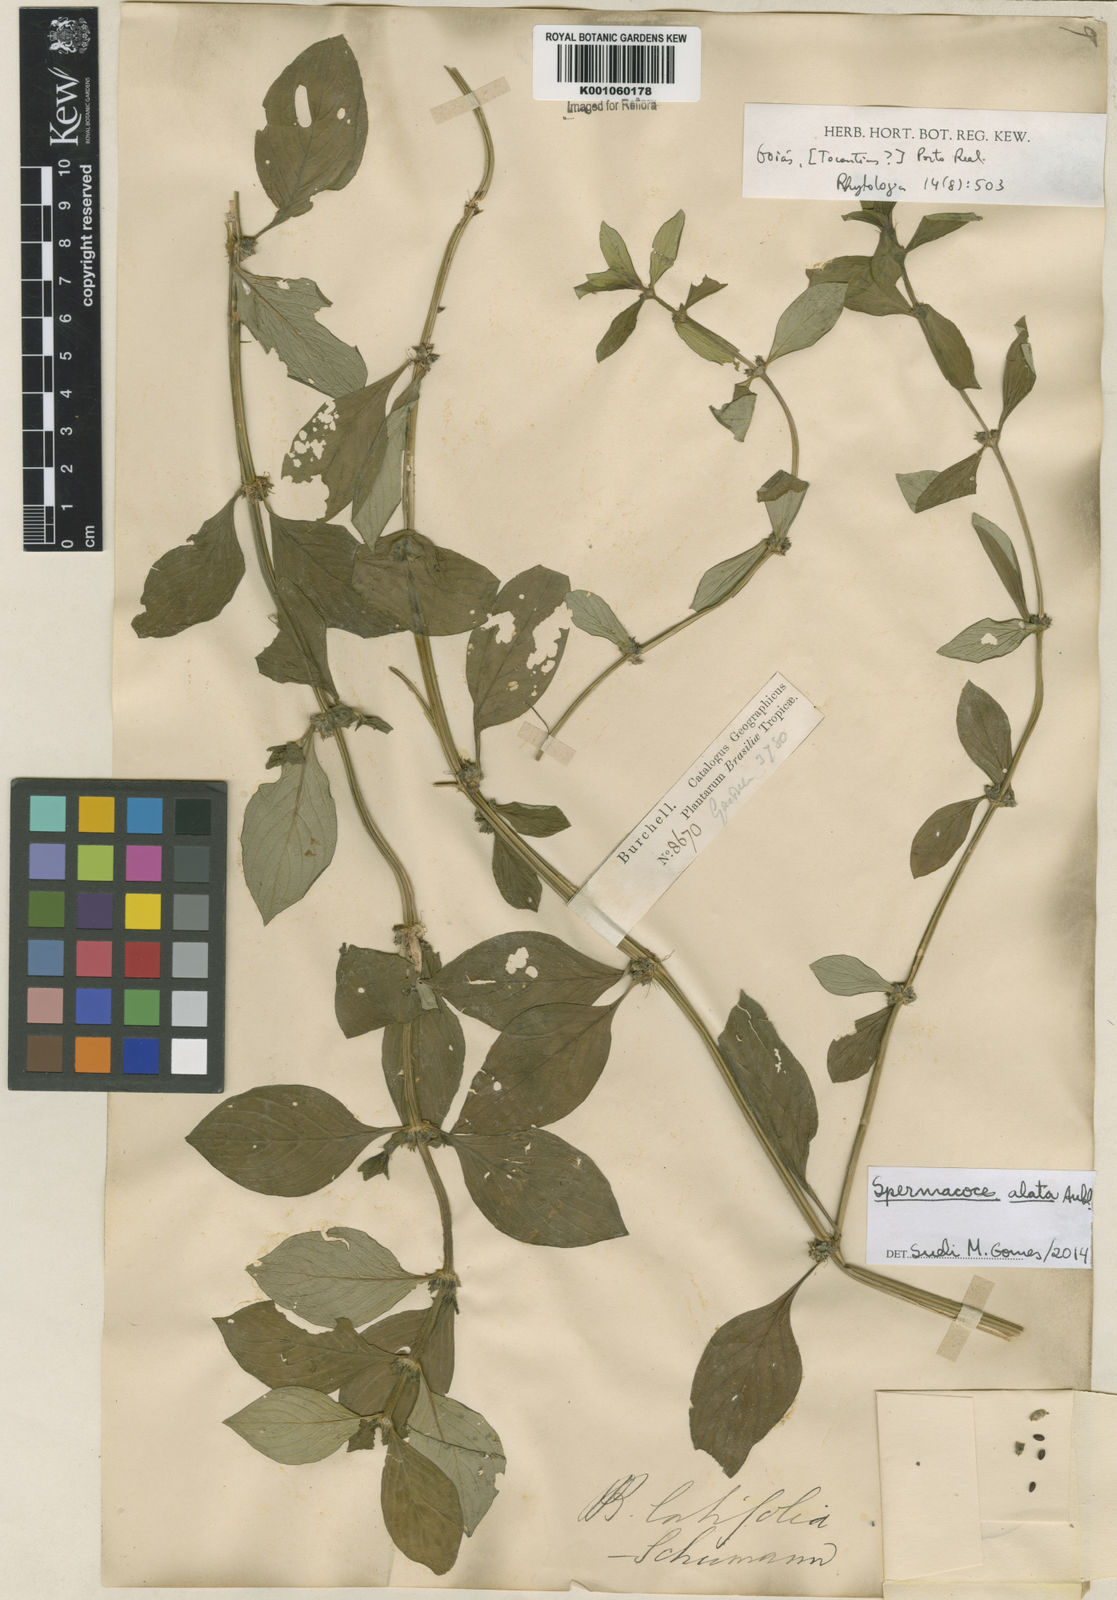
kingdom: Plantae
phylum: Tracheophyta
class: Magnoliopsida
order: Gentianales
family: Rubiaceae
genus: Spermacoce
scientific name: Spermacoce
